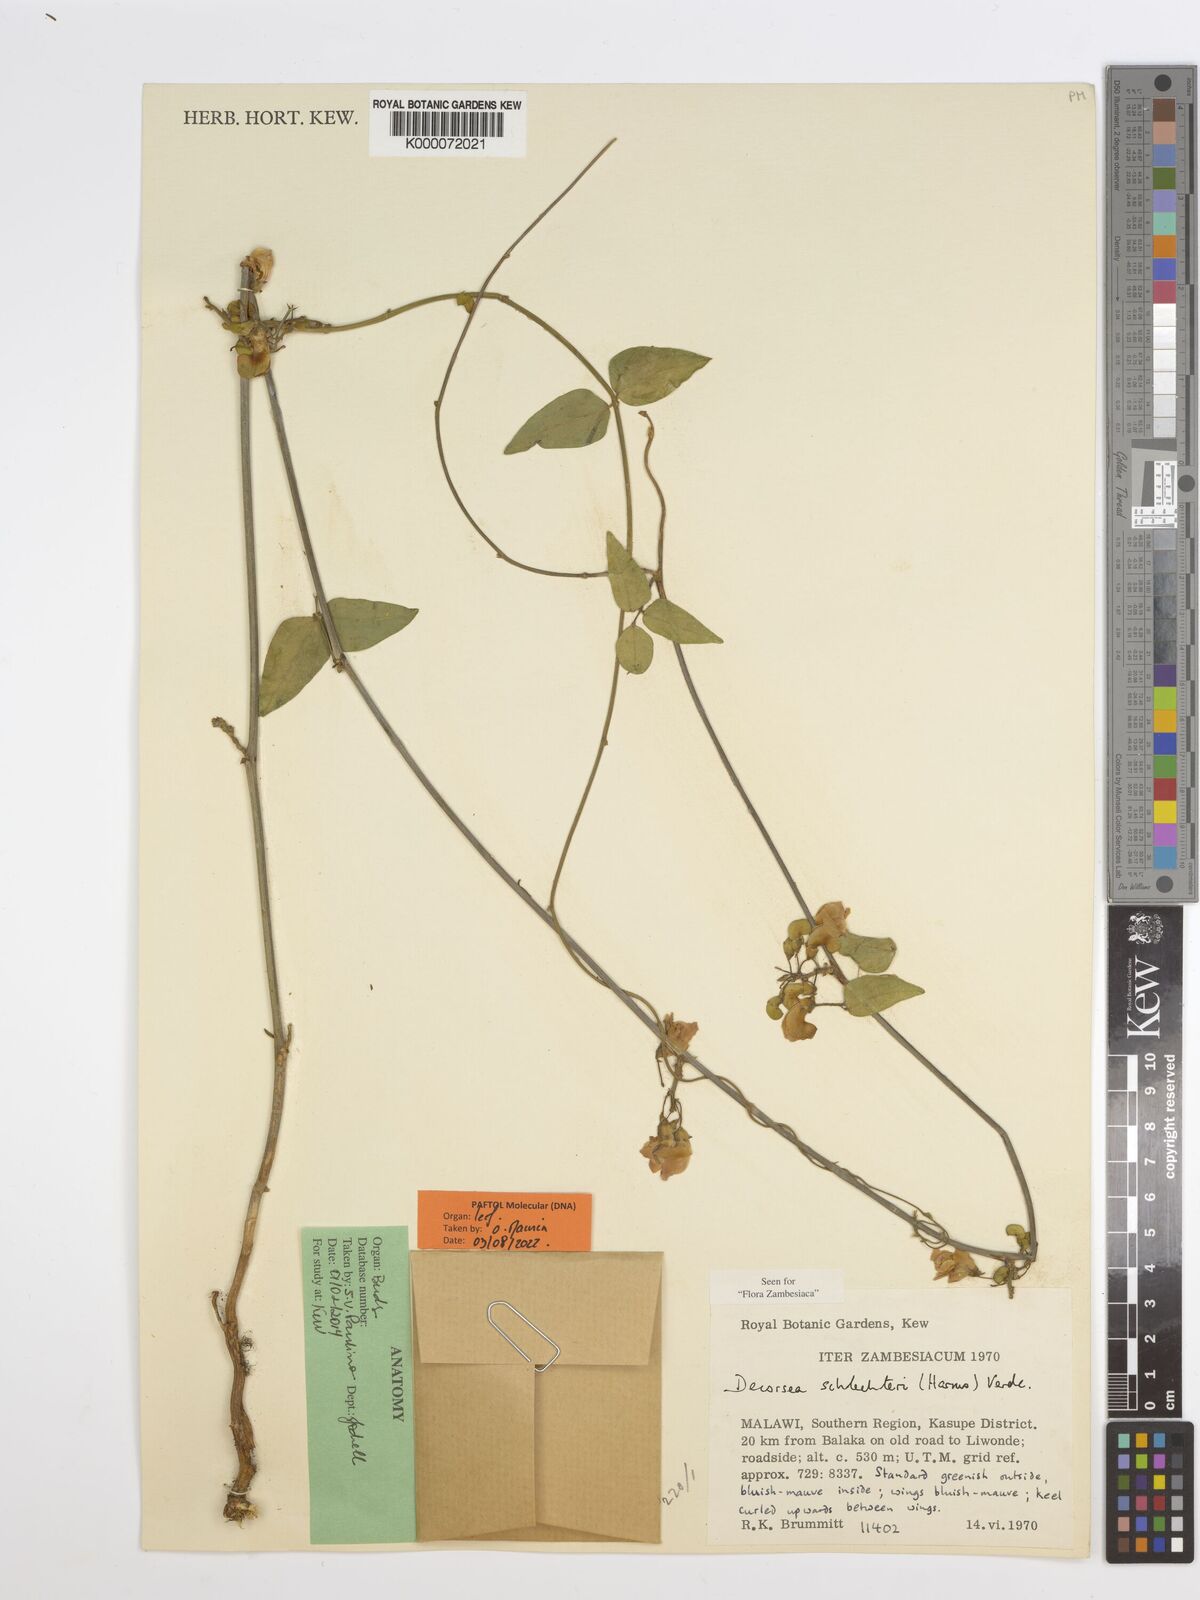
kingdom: Plantae
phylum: Tracheophyta
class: Magnoliopsida
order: Fabales
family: Fabaceae
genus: Decorsea
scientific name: Decorsea schlechteri
